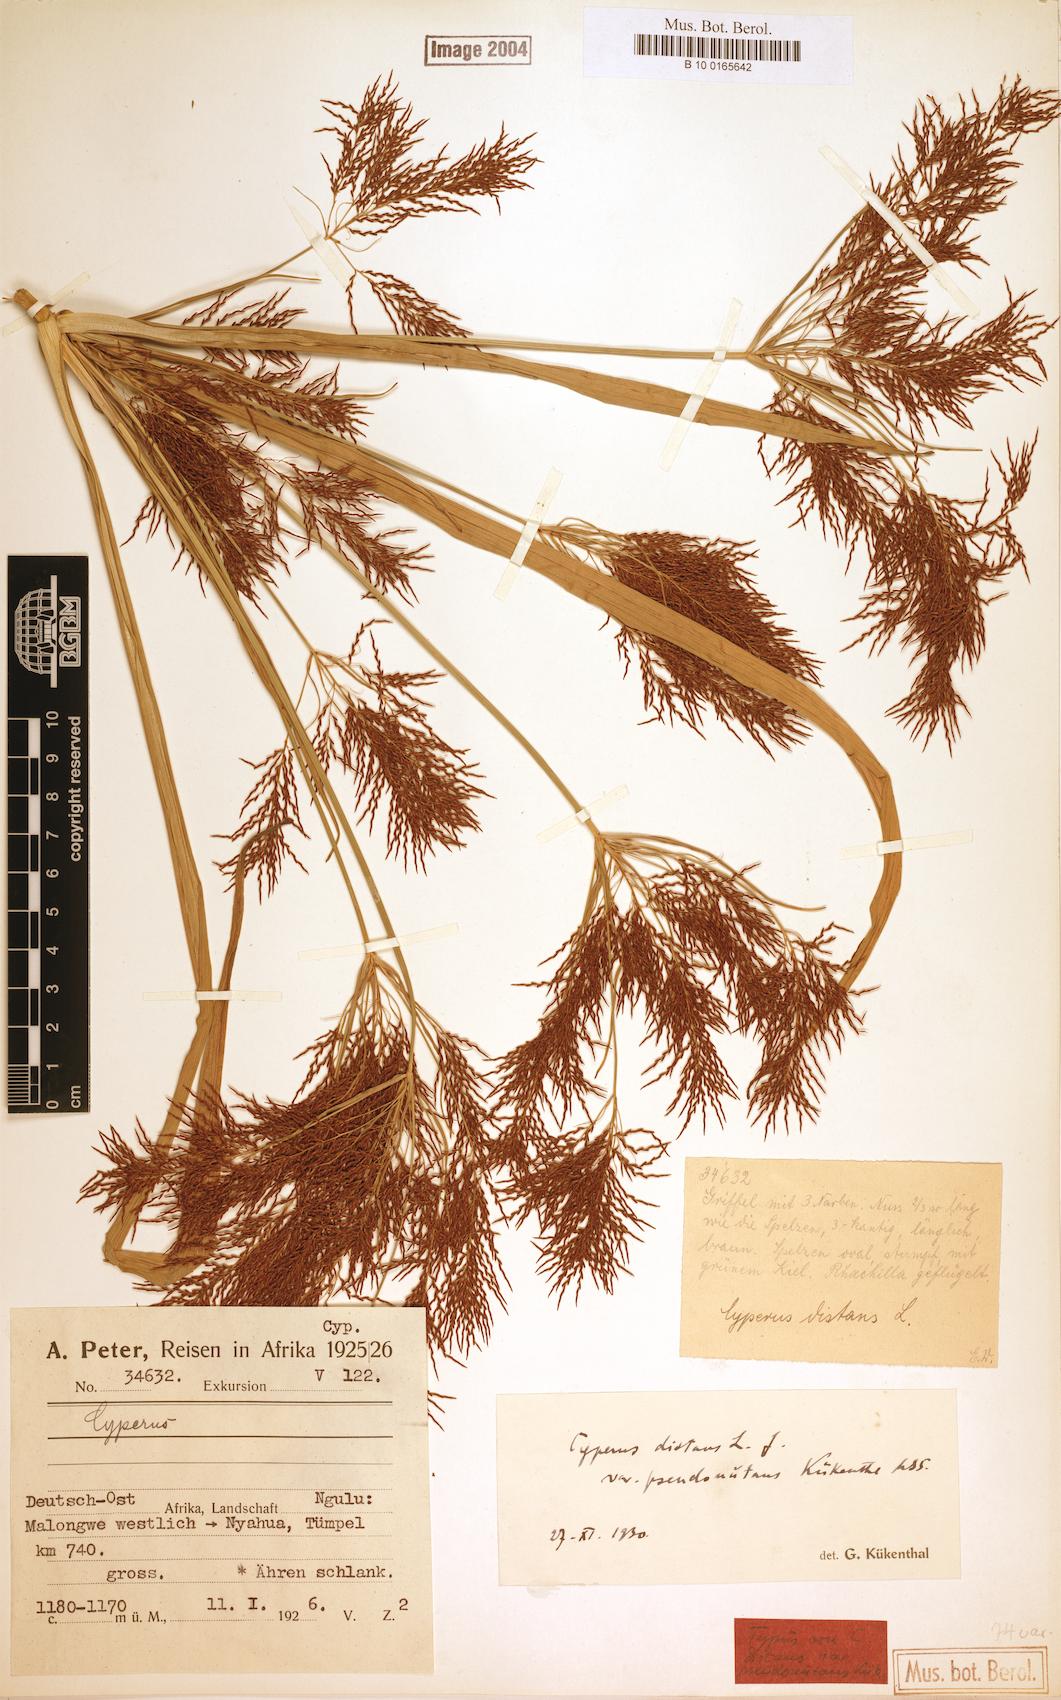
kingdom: Plantae
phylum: Tracheophyta
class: Liliopsida
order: Poales
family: Cyperaceae
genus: Cyperus
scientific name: Cyperus distans
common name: Slender cyperus
